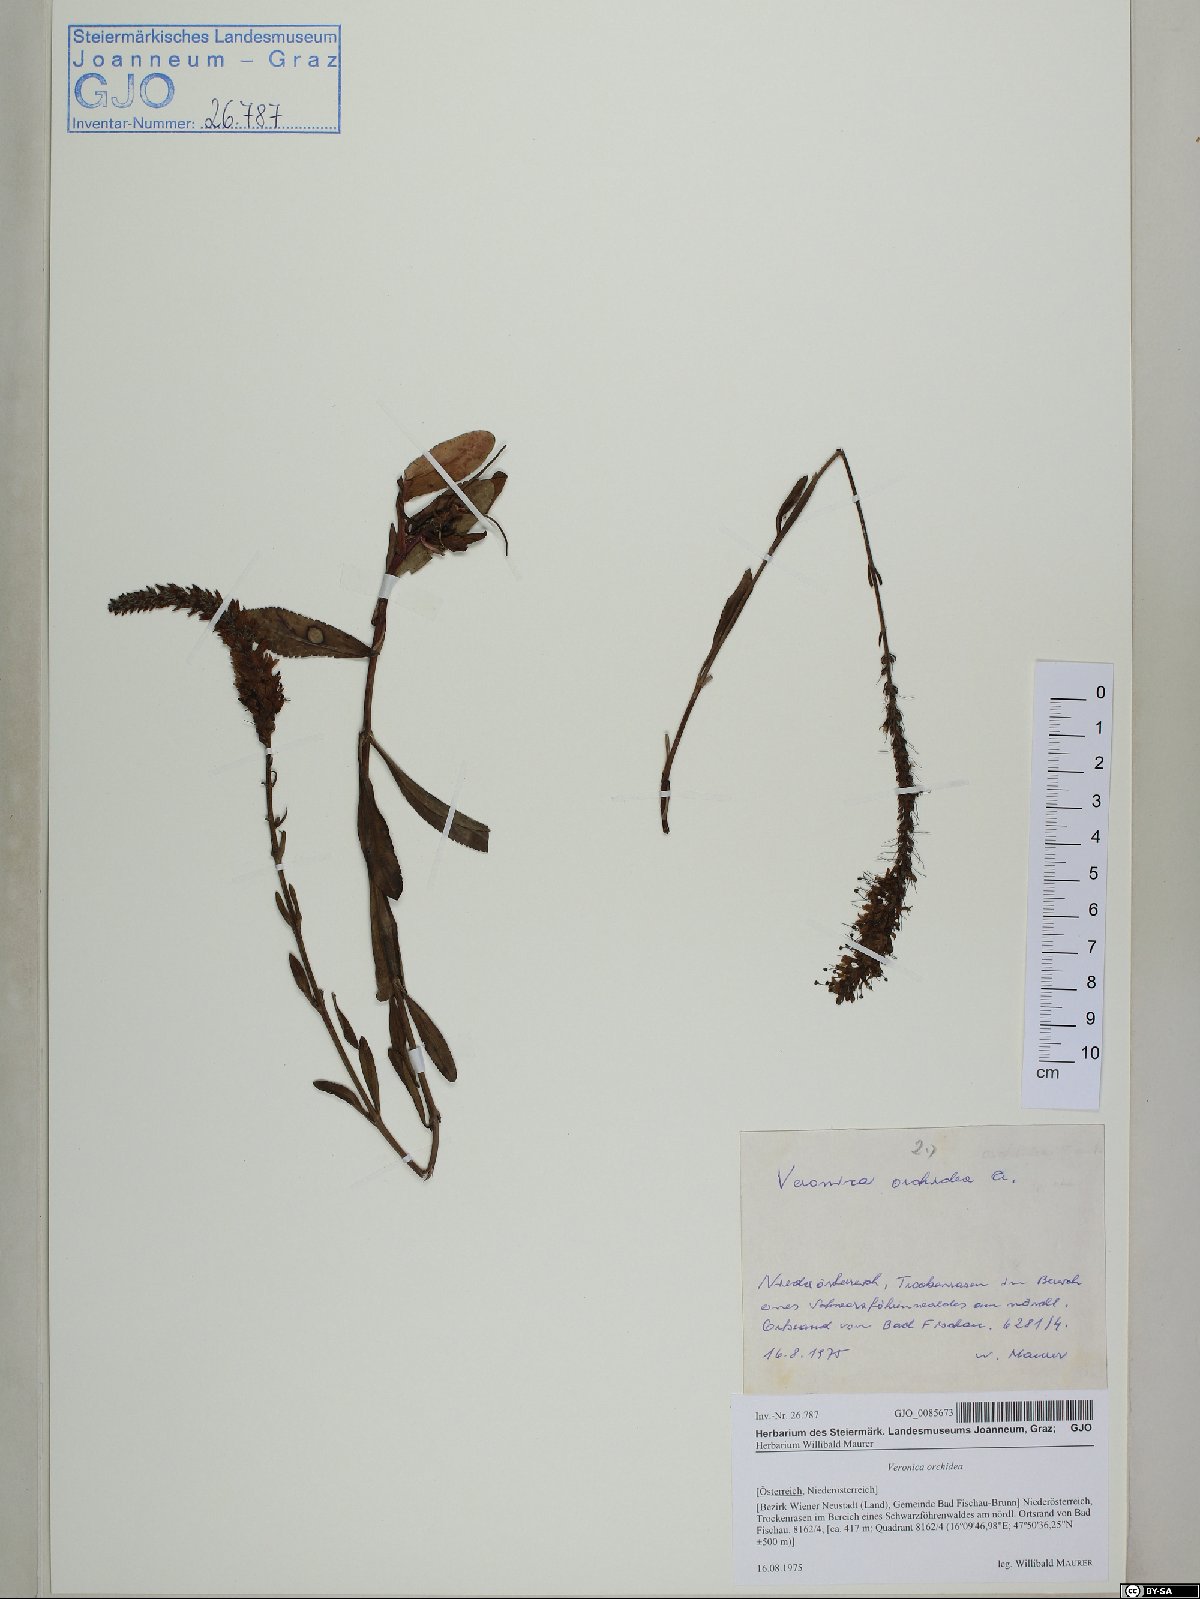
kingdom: Plantae
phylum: Tracheophyta
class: Magnoliopsida
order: Lamiales
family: Plantaginaceae
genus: Veronica
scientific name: Veronica orchidea
